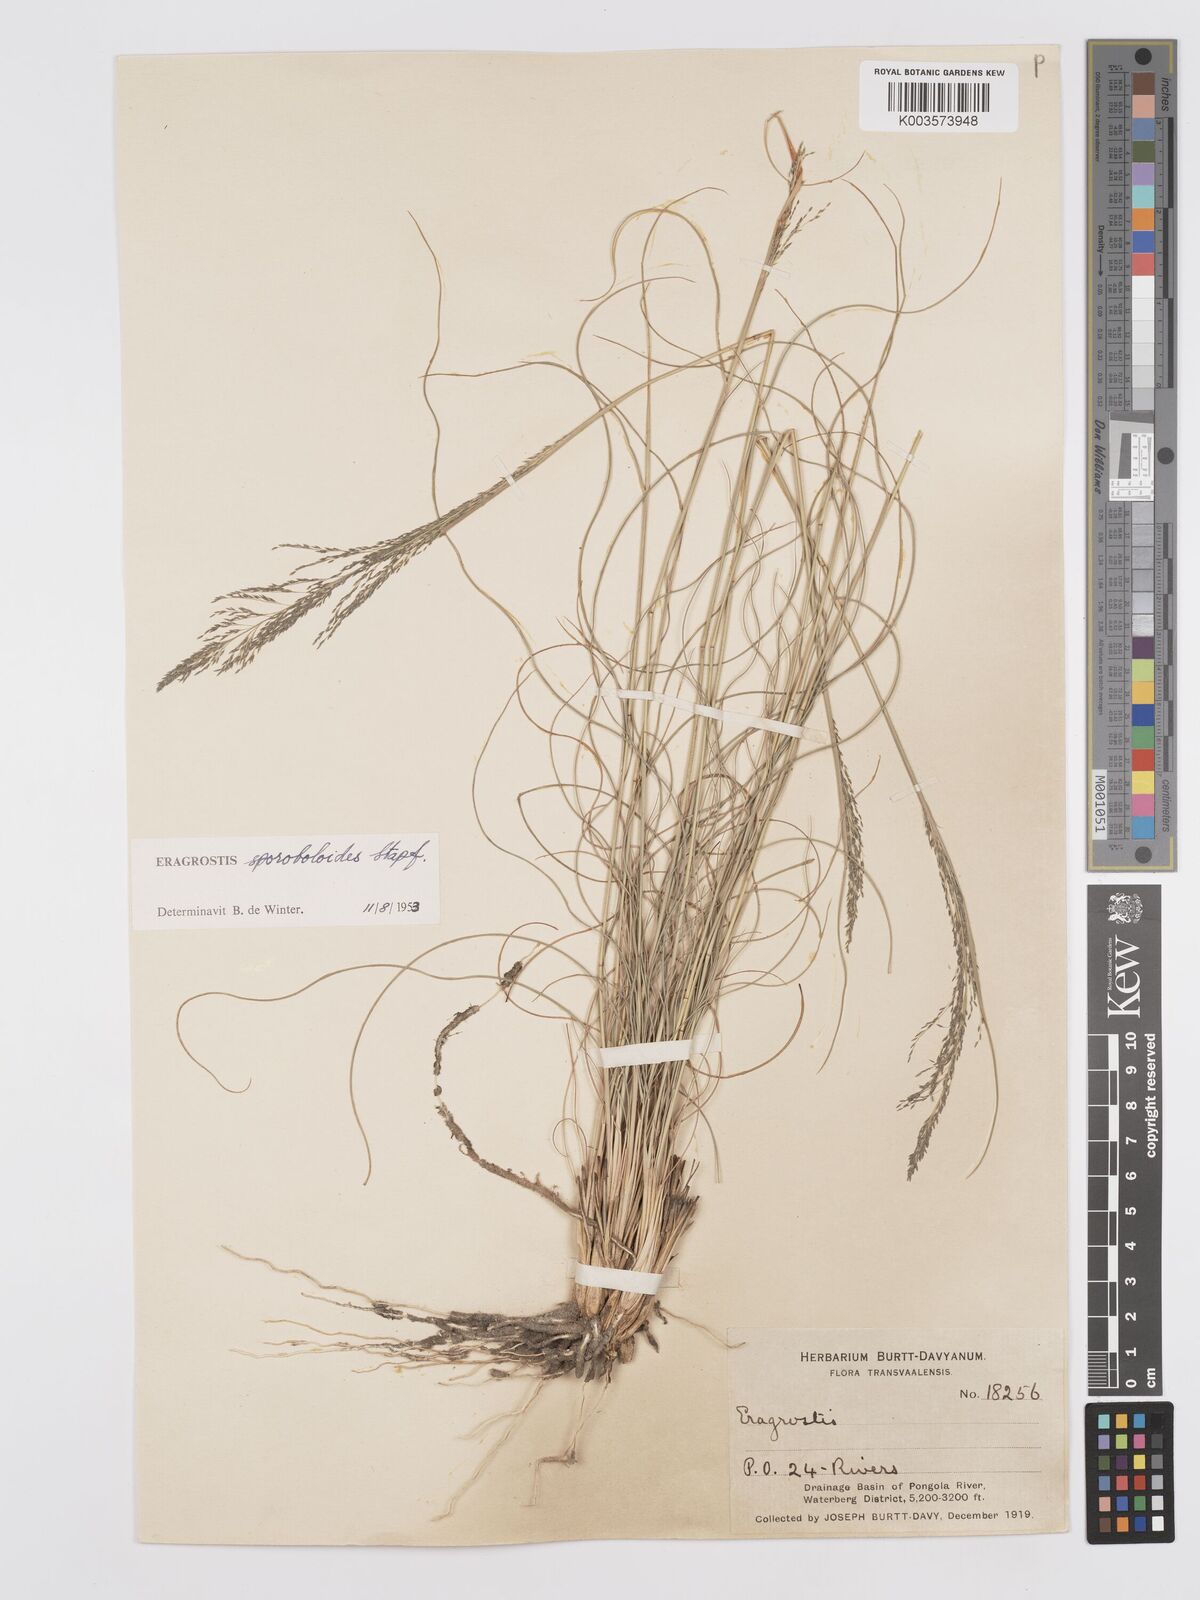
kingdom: Plantae
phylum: Tracheophyta
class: Liliopsida
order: Poales
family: Poaceae
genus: Eragrostis
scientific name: Eragrostis stapfii
